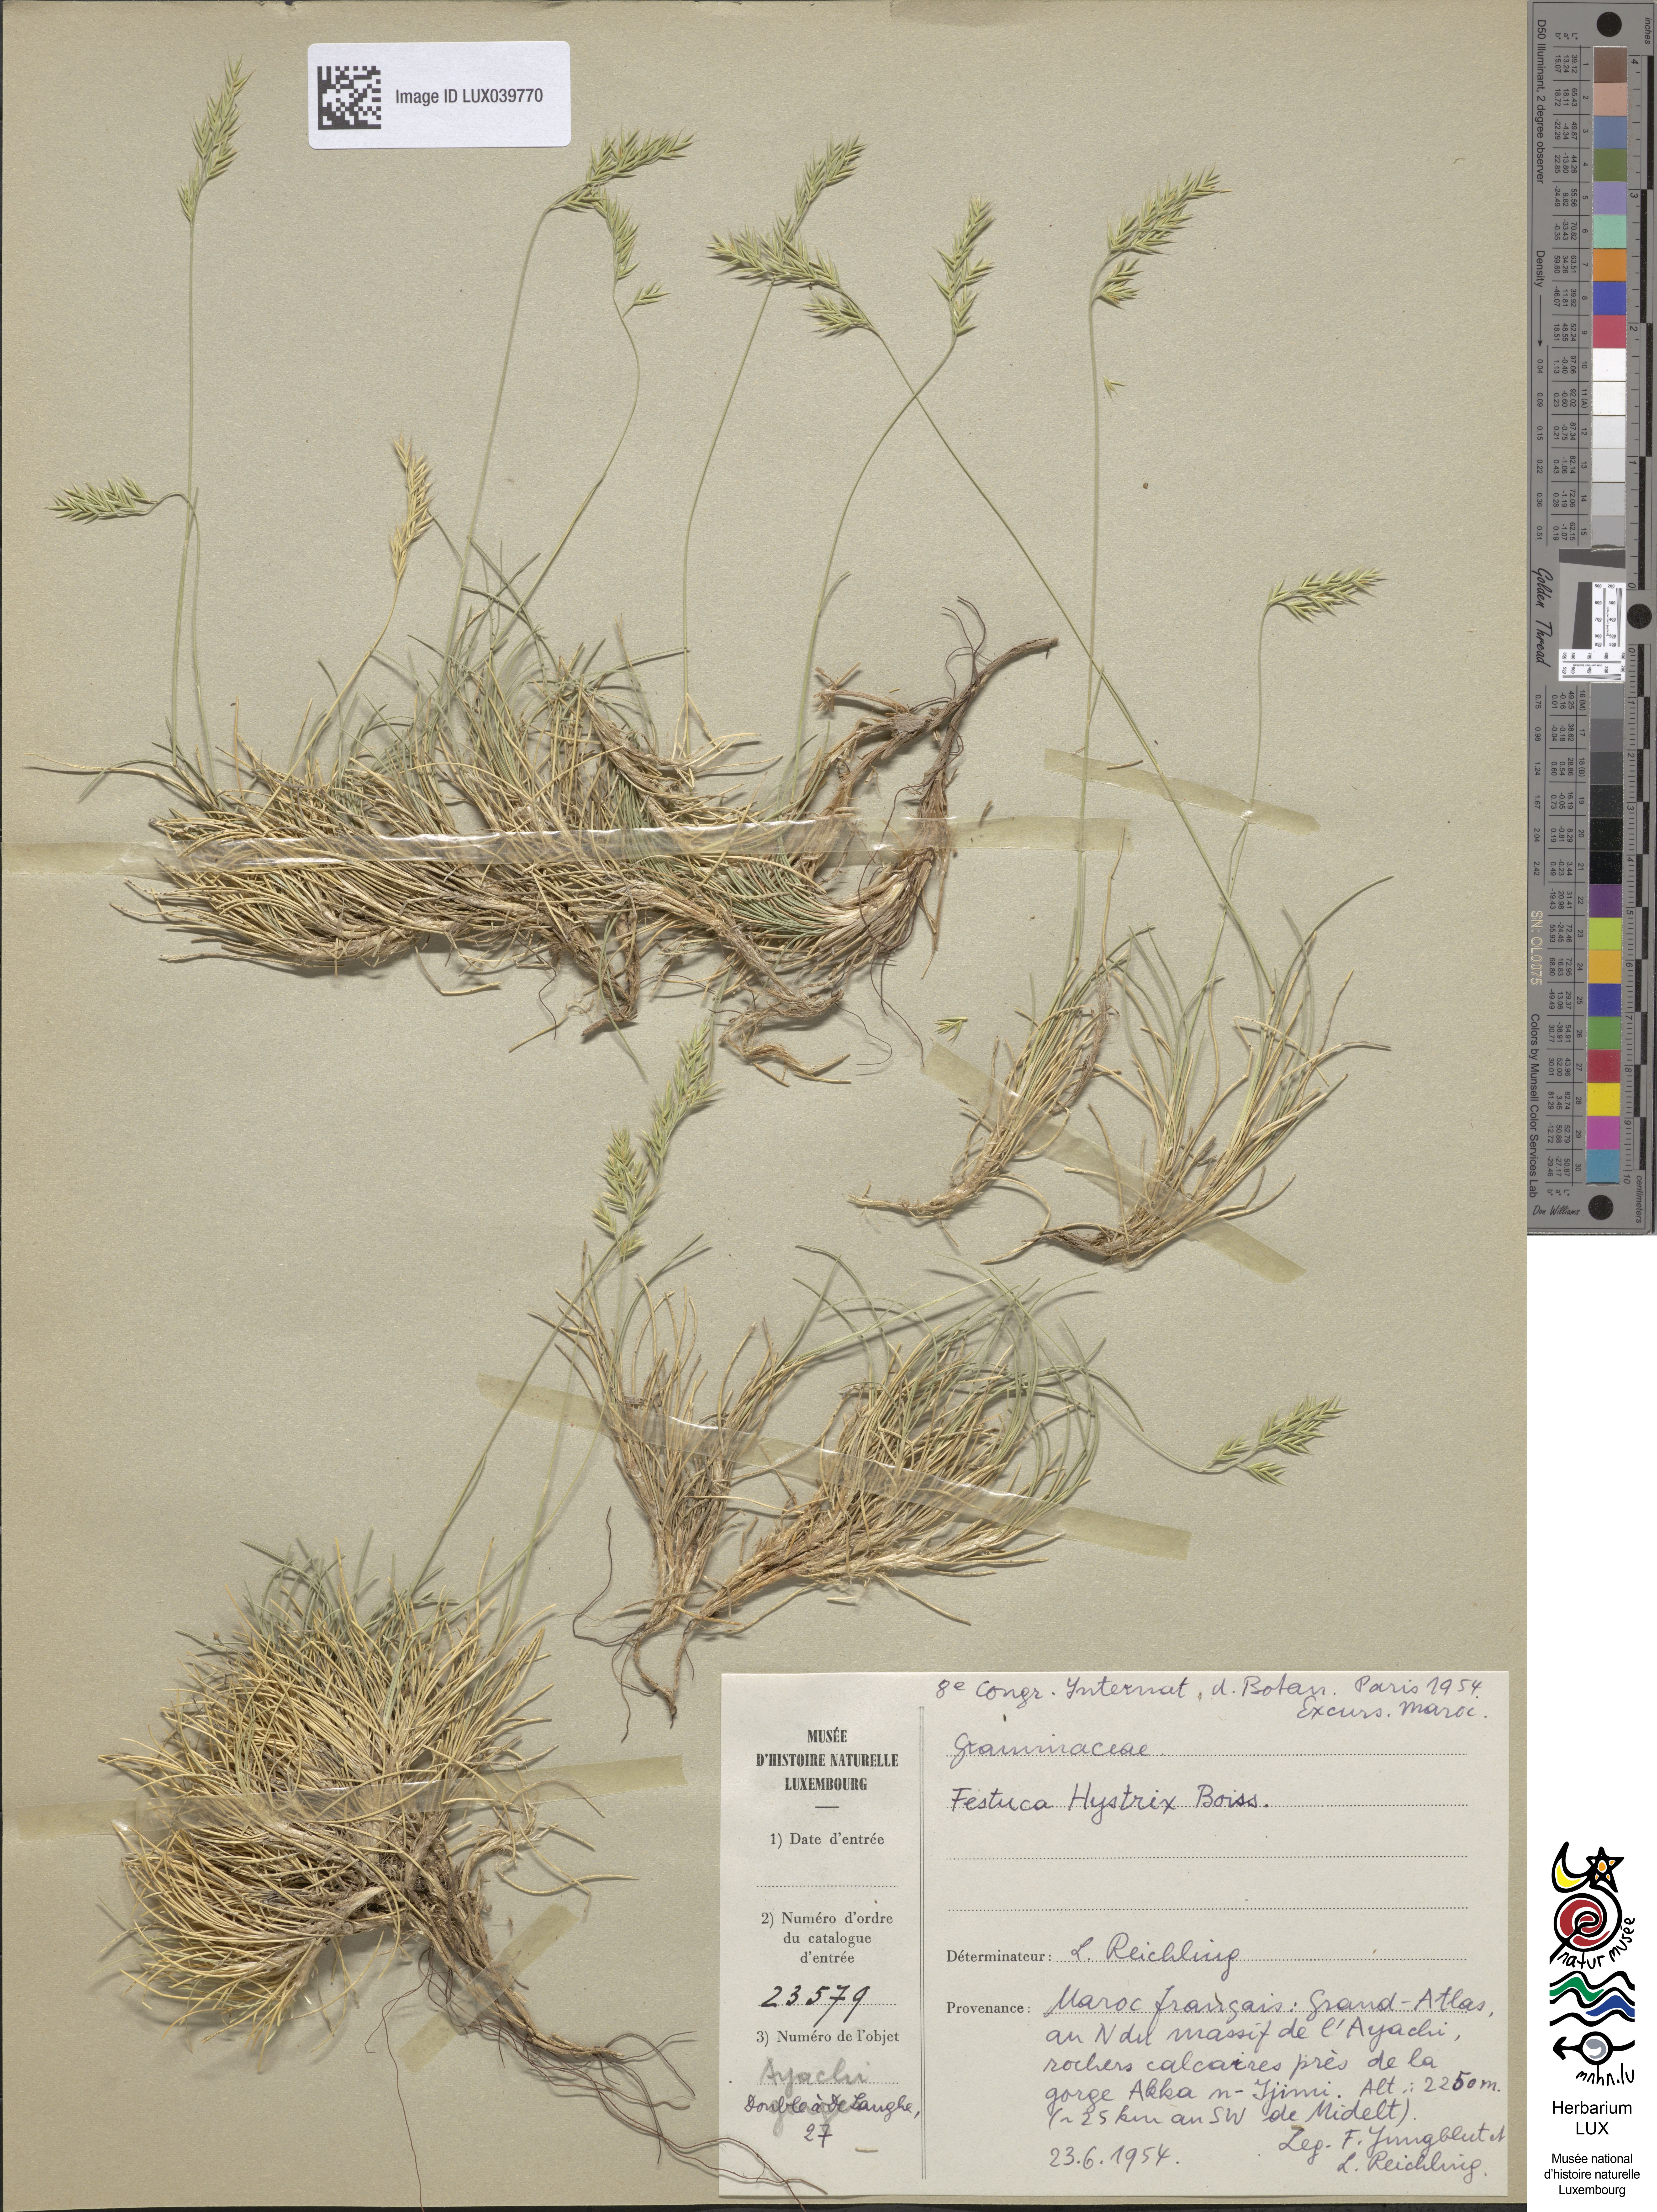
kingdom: Plantae
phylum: Tracheophyta
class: Liliopsida
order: Poales
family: Poaceae
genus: Festuca
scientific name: Festuca hystrix
